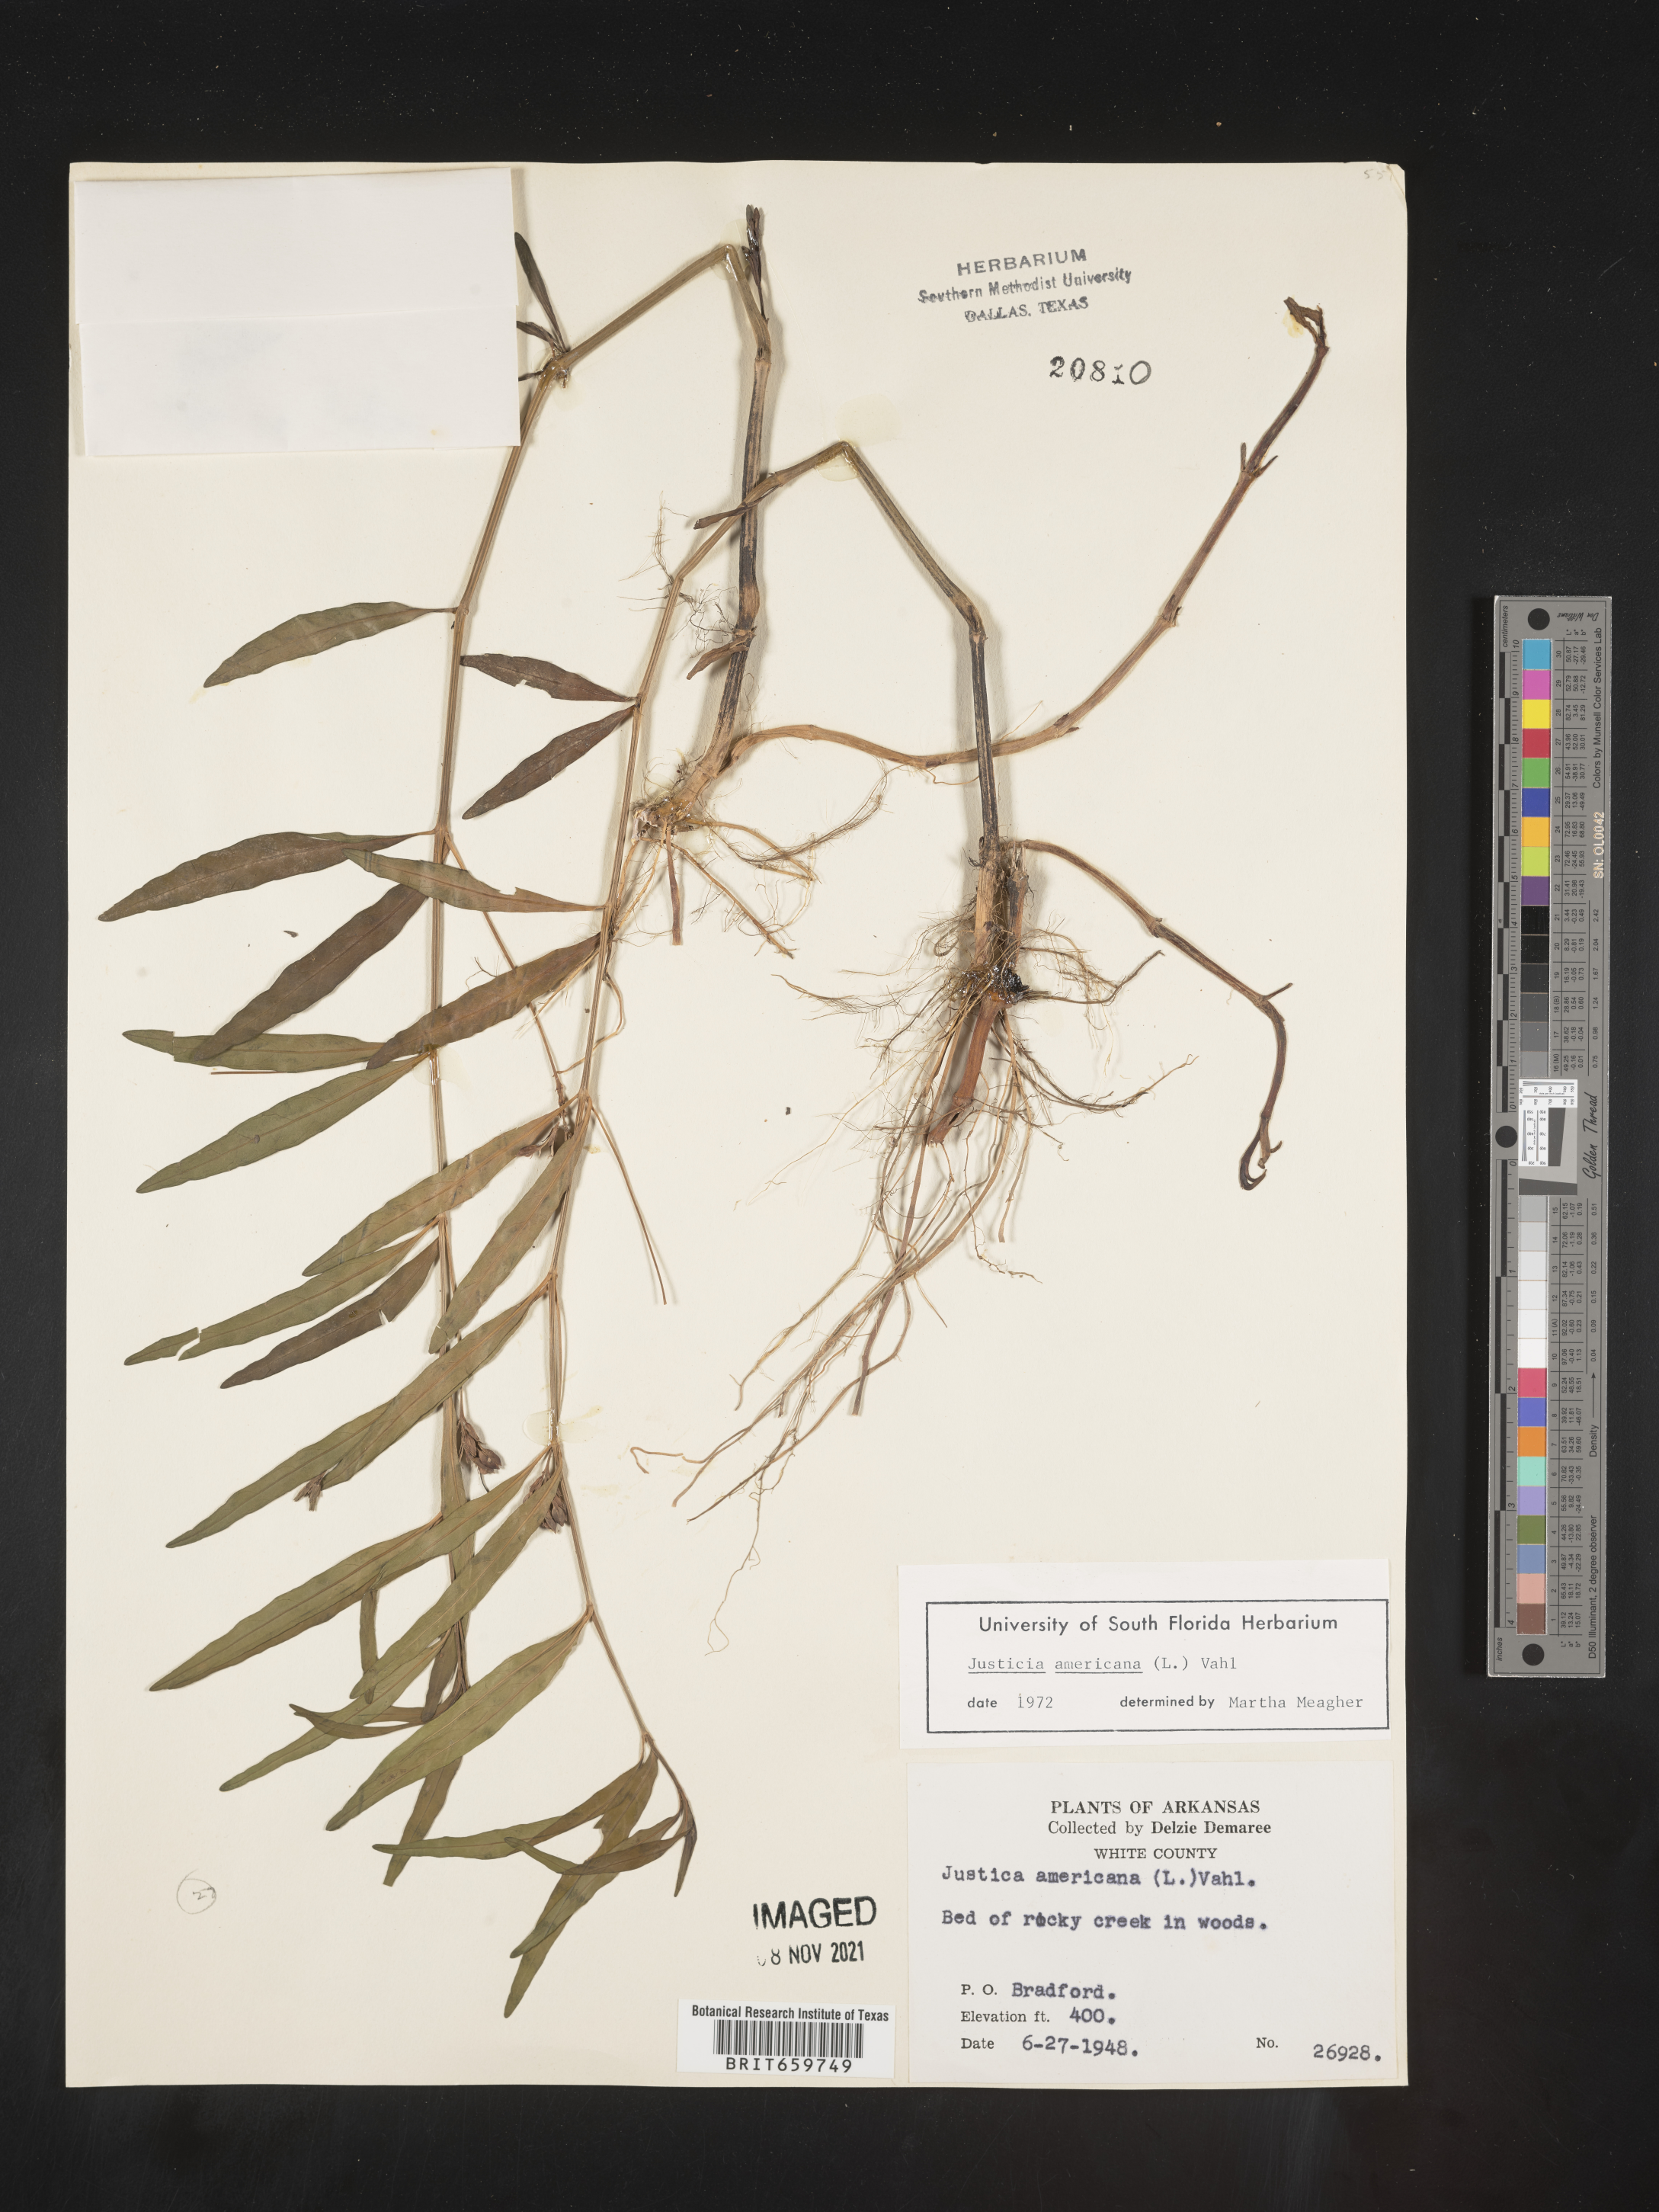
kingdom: Plantae
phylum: Tracheophyta
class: Magnoliopsida
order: Lamiales
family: Acanthaceae
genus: Dianthera
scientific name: Dianthera americana
